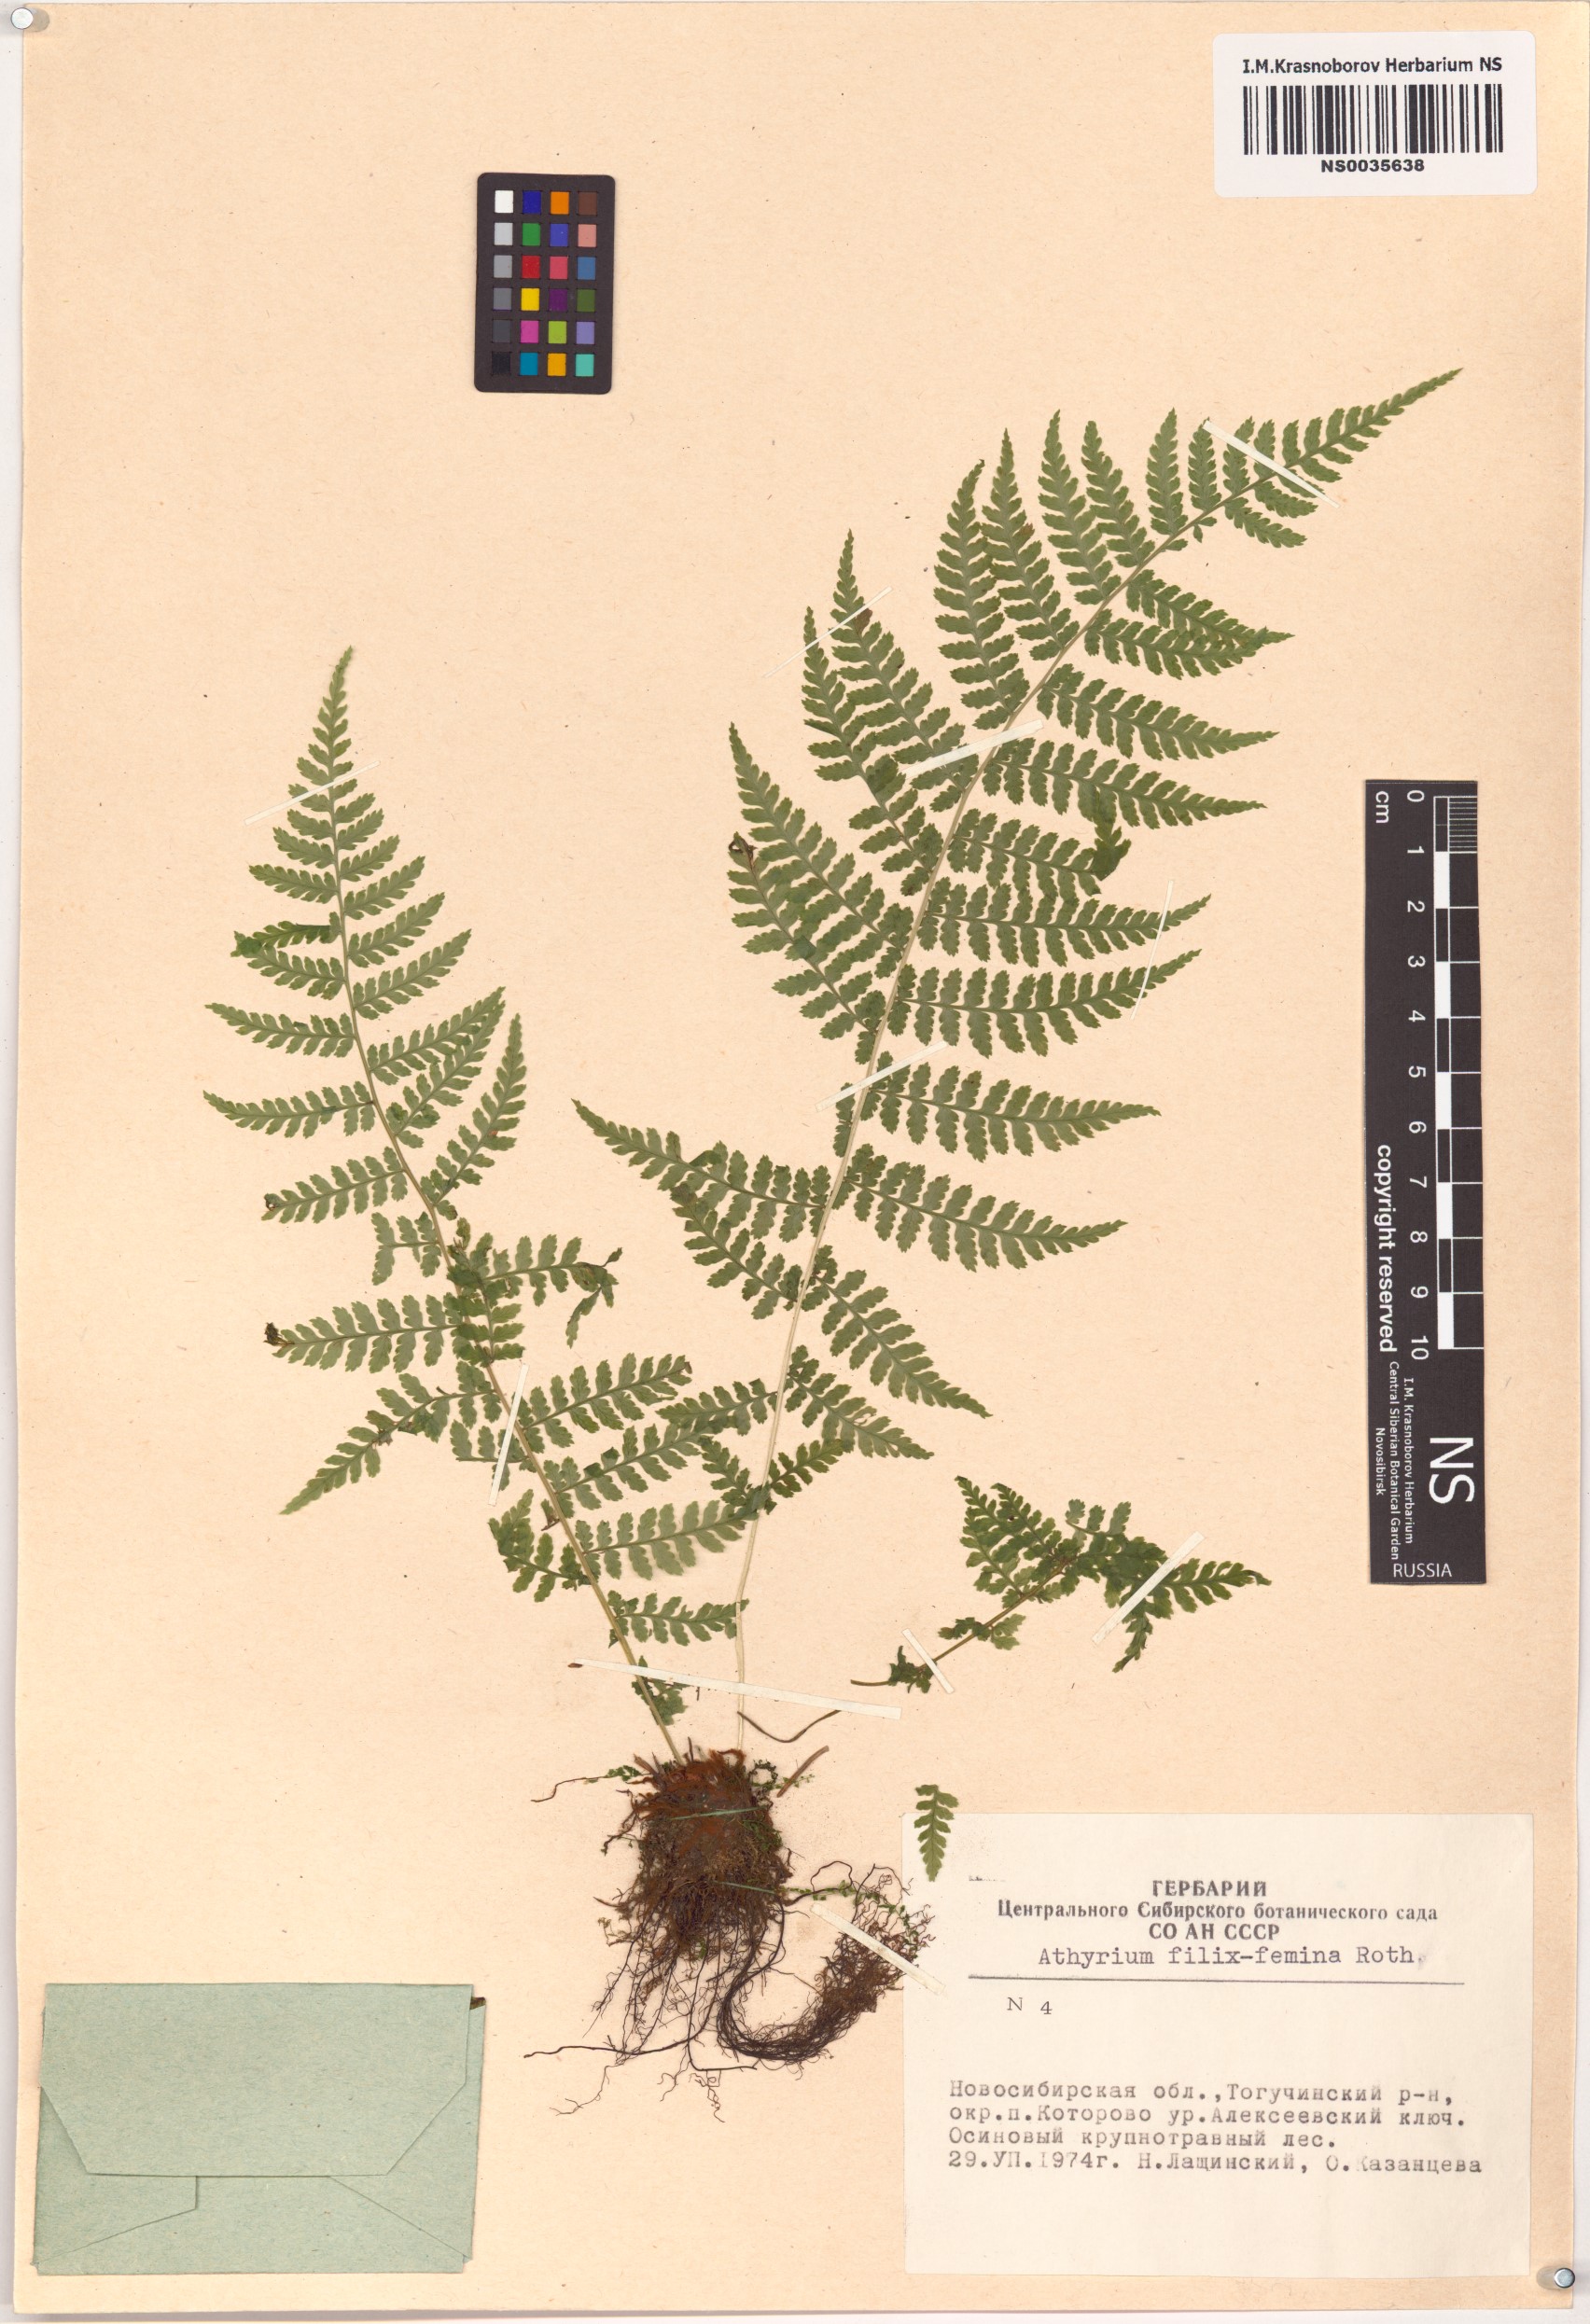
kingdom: Plantae
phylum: Tracheophyta
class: Polypodiopsida
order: Polypodiales
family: Athyriaceae
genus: Athyrium
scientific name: Athyrium filix-femina
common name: Lady fern
